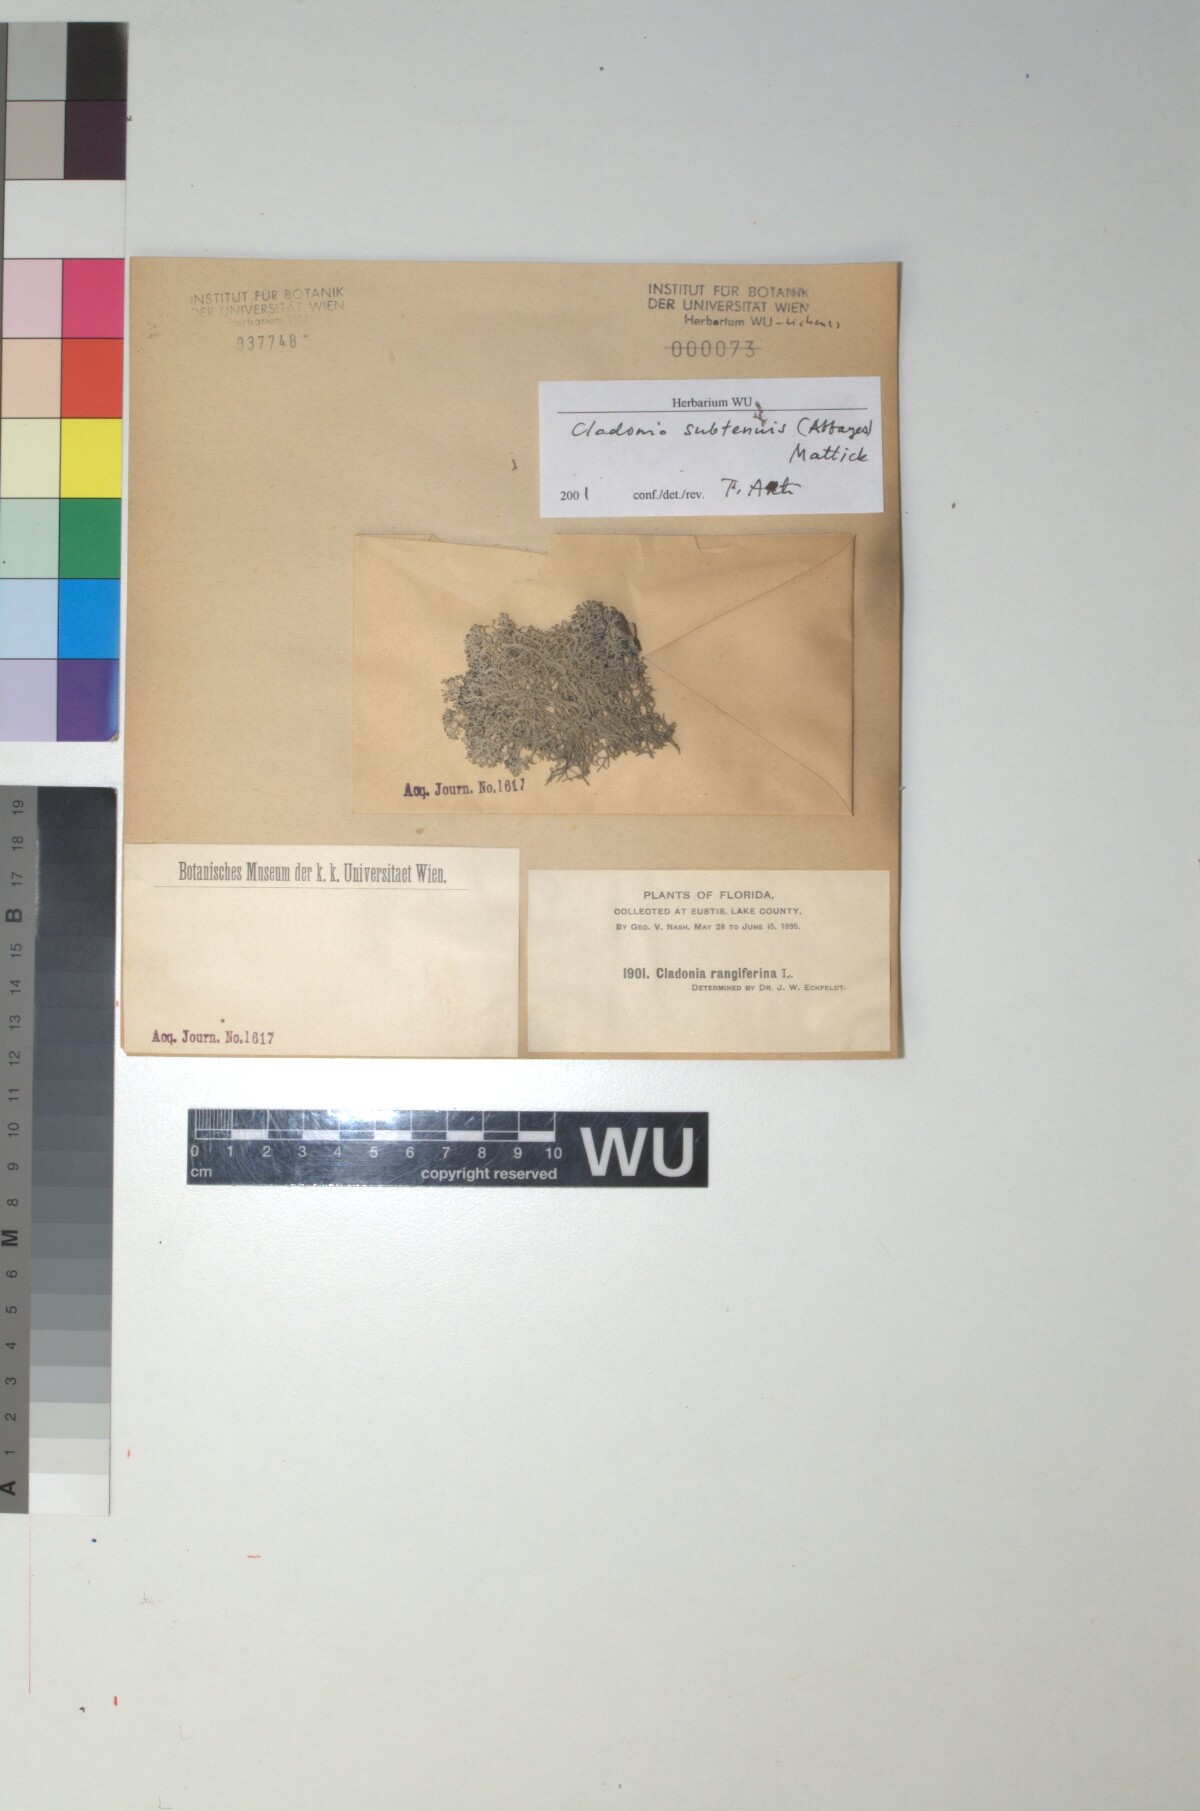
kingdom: Fungi
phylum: Ascomycota
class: Lecanoromycetes
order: Lecanorales
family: Cladoniaceae
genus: Cladonia
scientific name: Cladonia subtenuis
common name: Dixie reindeer lichen
